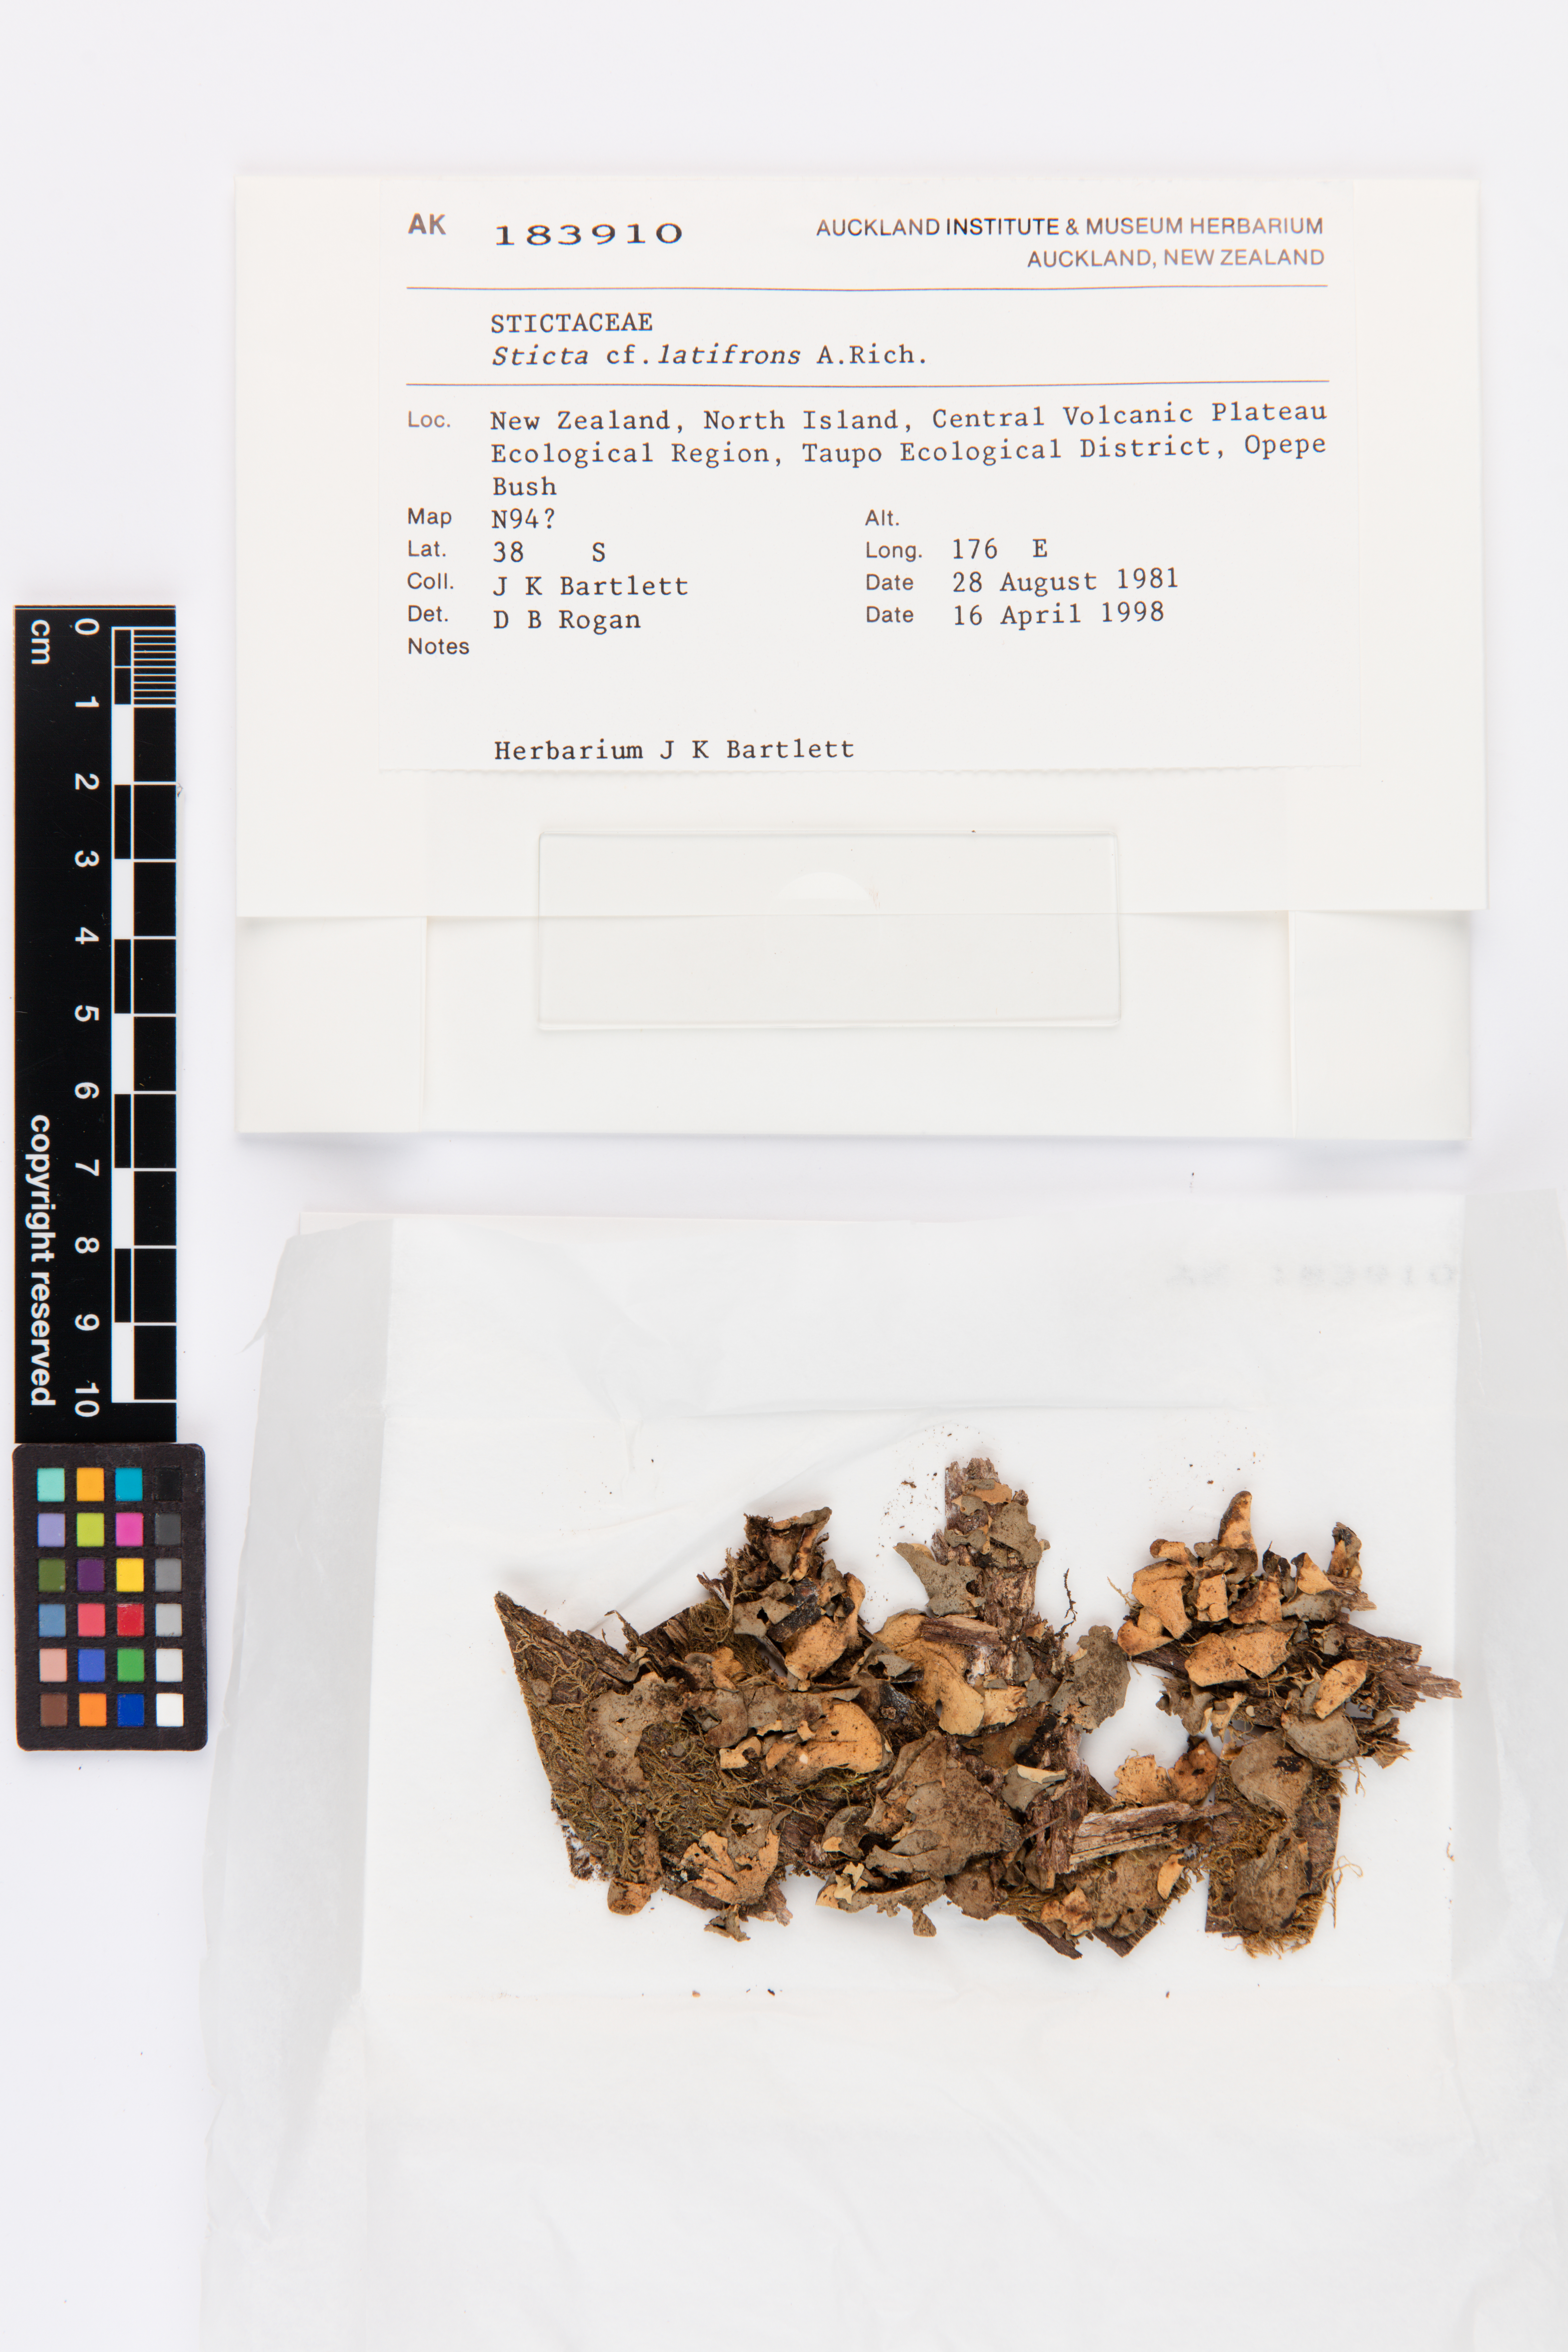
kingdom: Fungi
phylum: Ascomycota
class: Lecanoromycetes
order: Peltigerales
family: Lobariaceae
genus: Sticta
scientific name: Sticta latifrons
